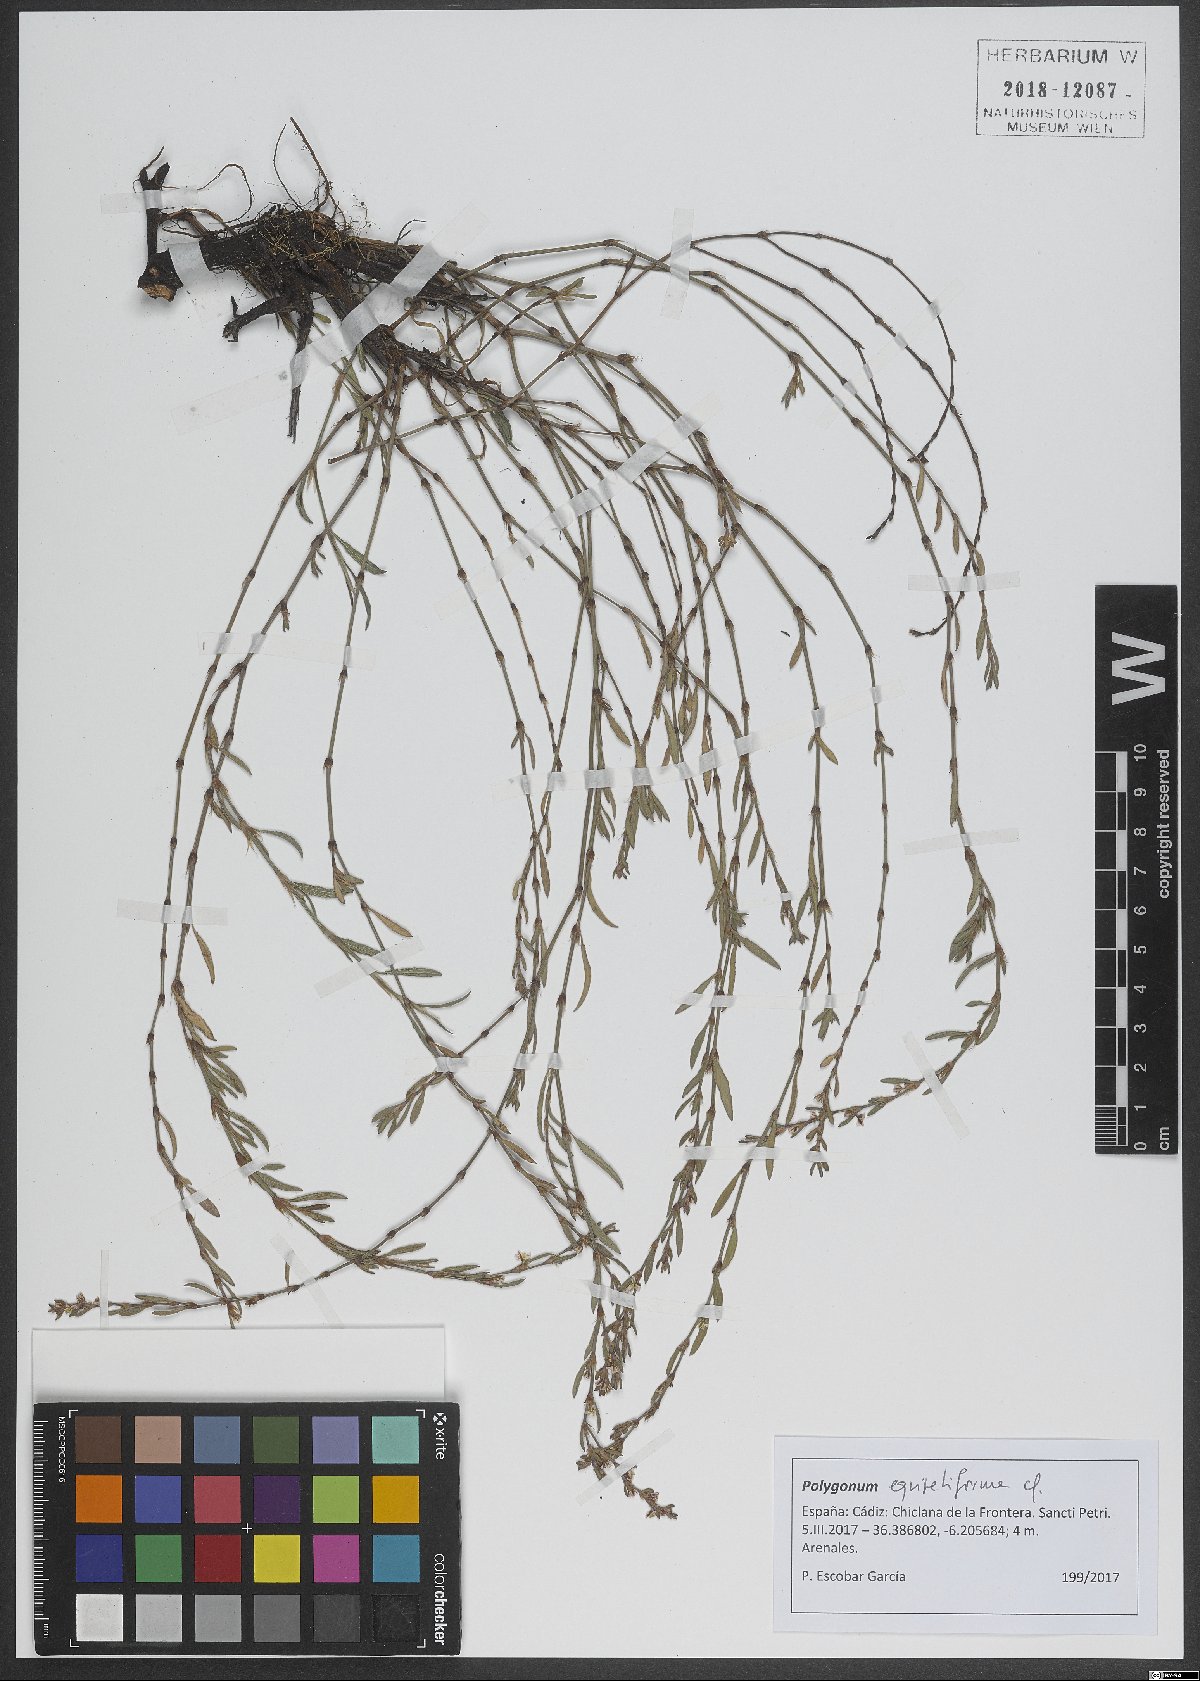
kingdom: Plantae
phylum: Tracheophyta
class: Magnoliopsida
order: Caryophyllales
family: Polygonaceae
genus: Polygonum
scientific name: Polygonum equisetiforme
